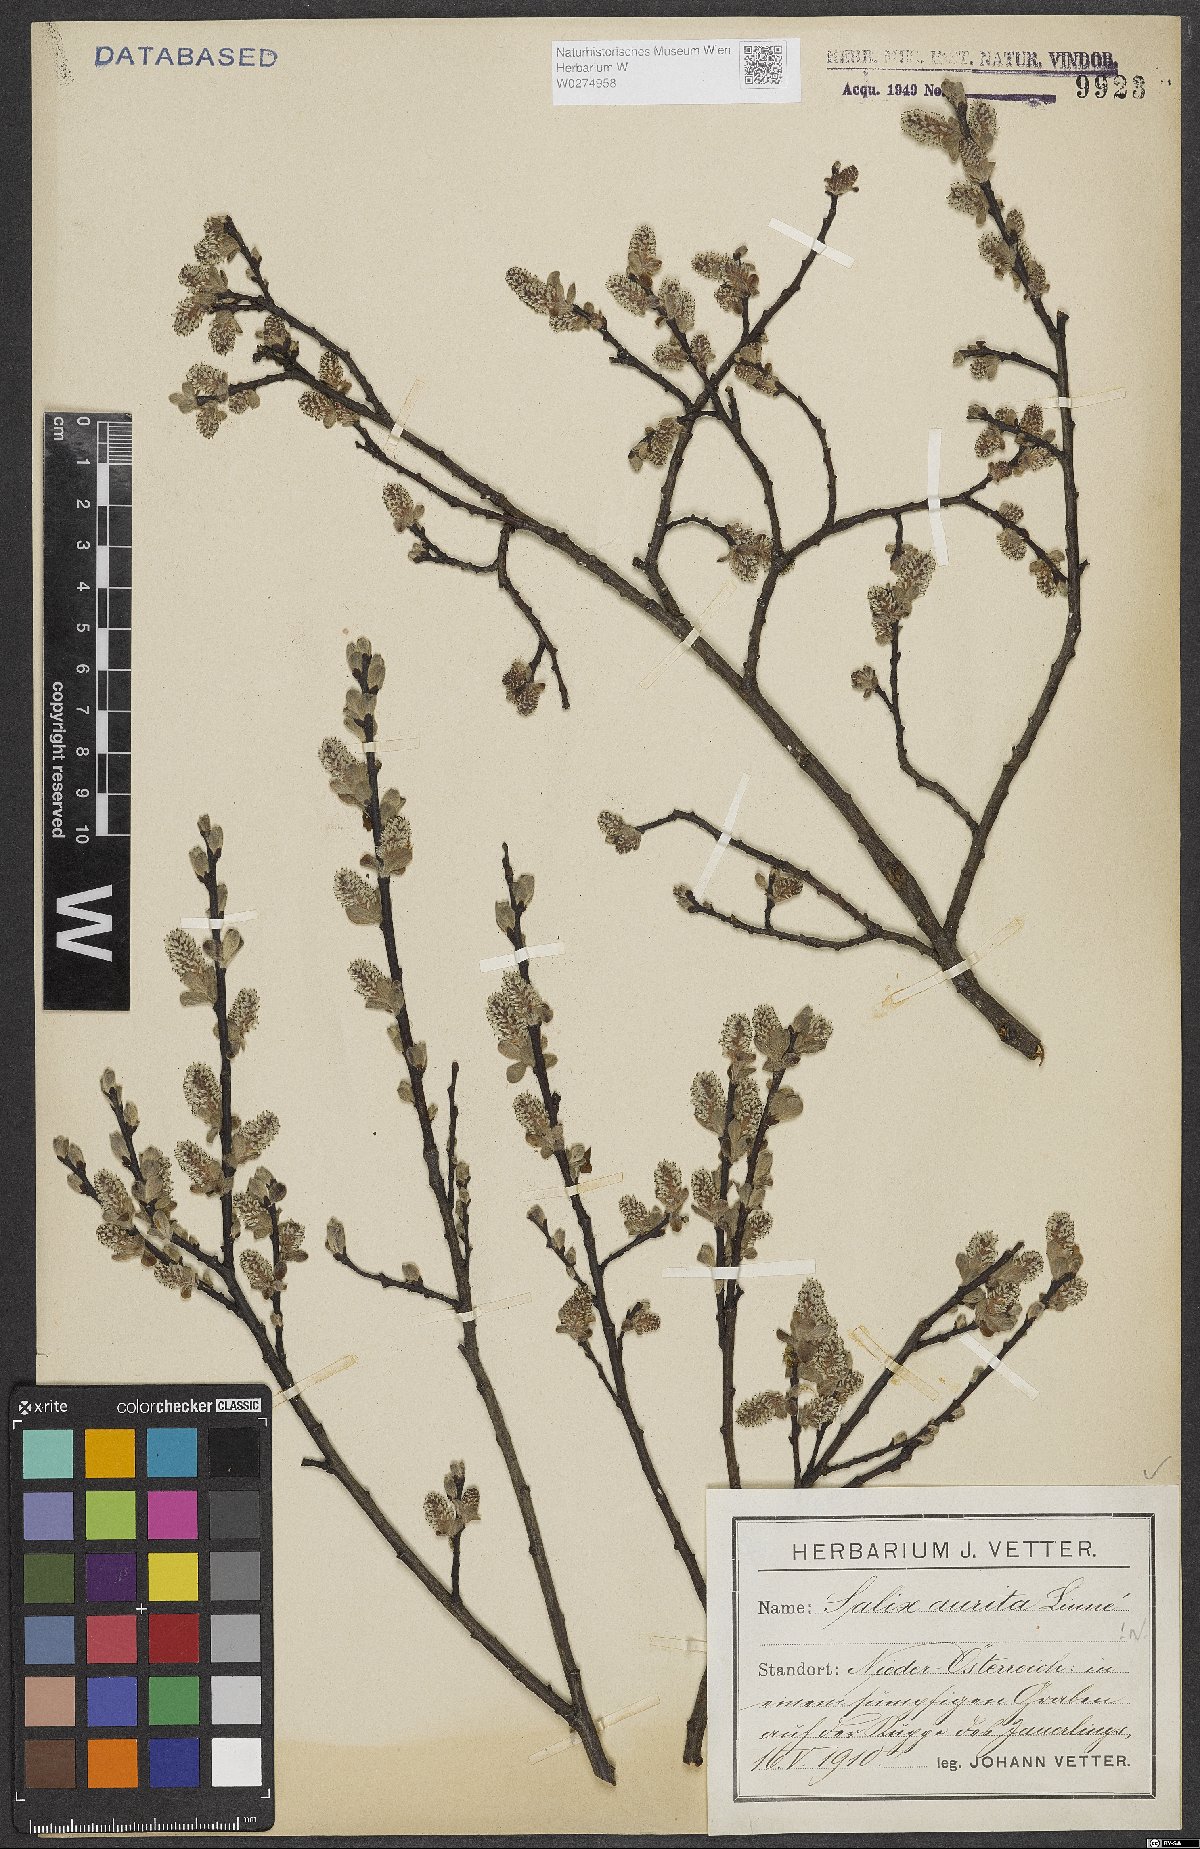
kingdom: Plantae
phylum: Tracheophyta
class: Magnoliopsida
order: Malpighiales
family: Salicaceae
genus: Salix
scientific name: Salix aurita
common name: Eared willow
